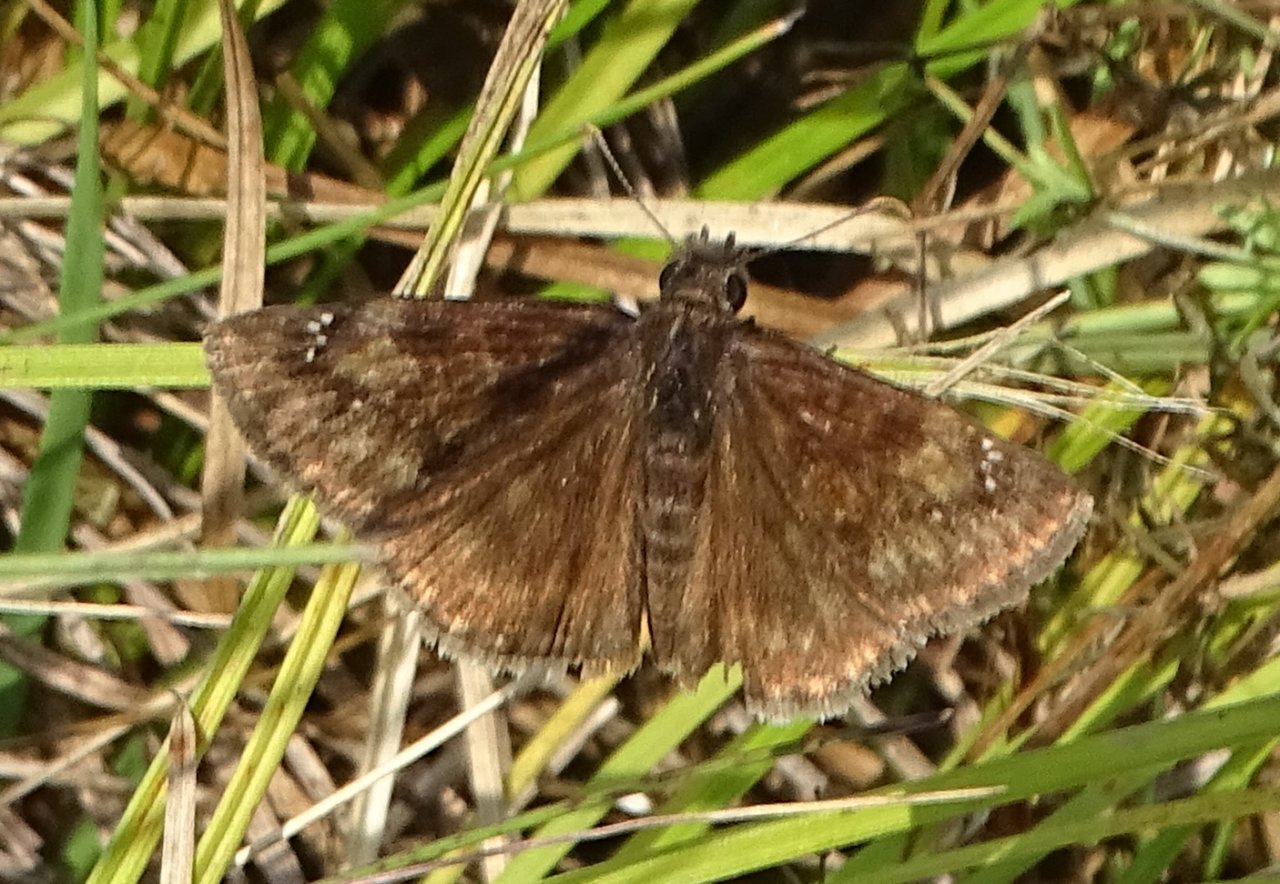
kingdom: Animalia
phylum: Arthropoda
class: Insecta
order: Lepidoptera
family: Hesperiidae
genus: Gesta
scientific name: Gesta
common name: Wild Indigo Duskywing
